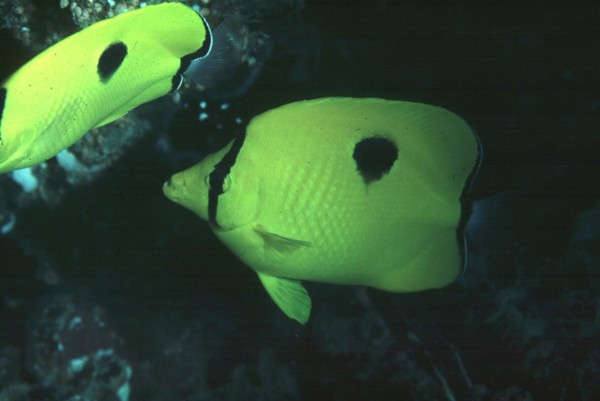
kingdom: Animalia
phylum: Chordata
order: Perciformes
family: Chaetodontidae
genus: Chaetodon
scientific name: Chaetodon unimaculatus
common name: Teardrop butterflyfish
